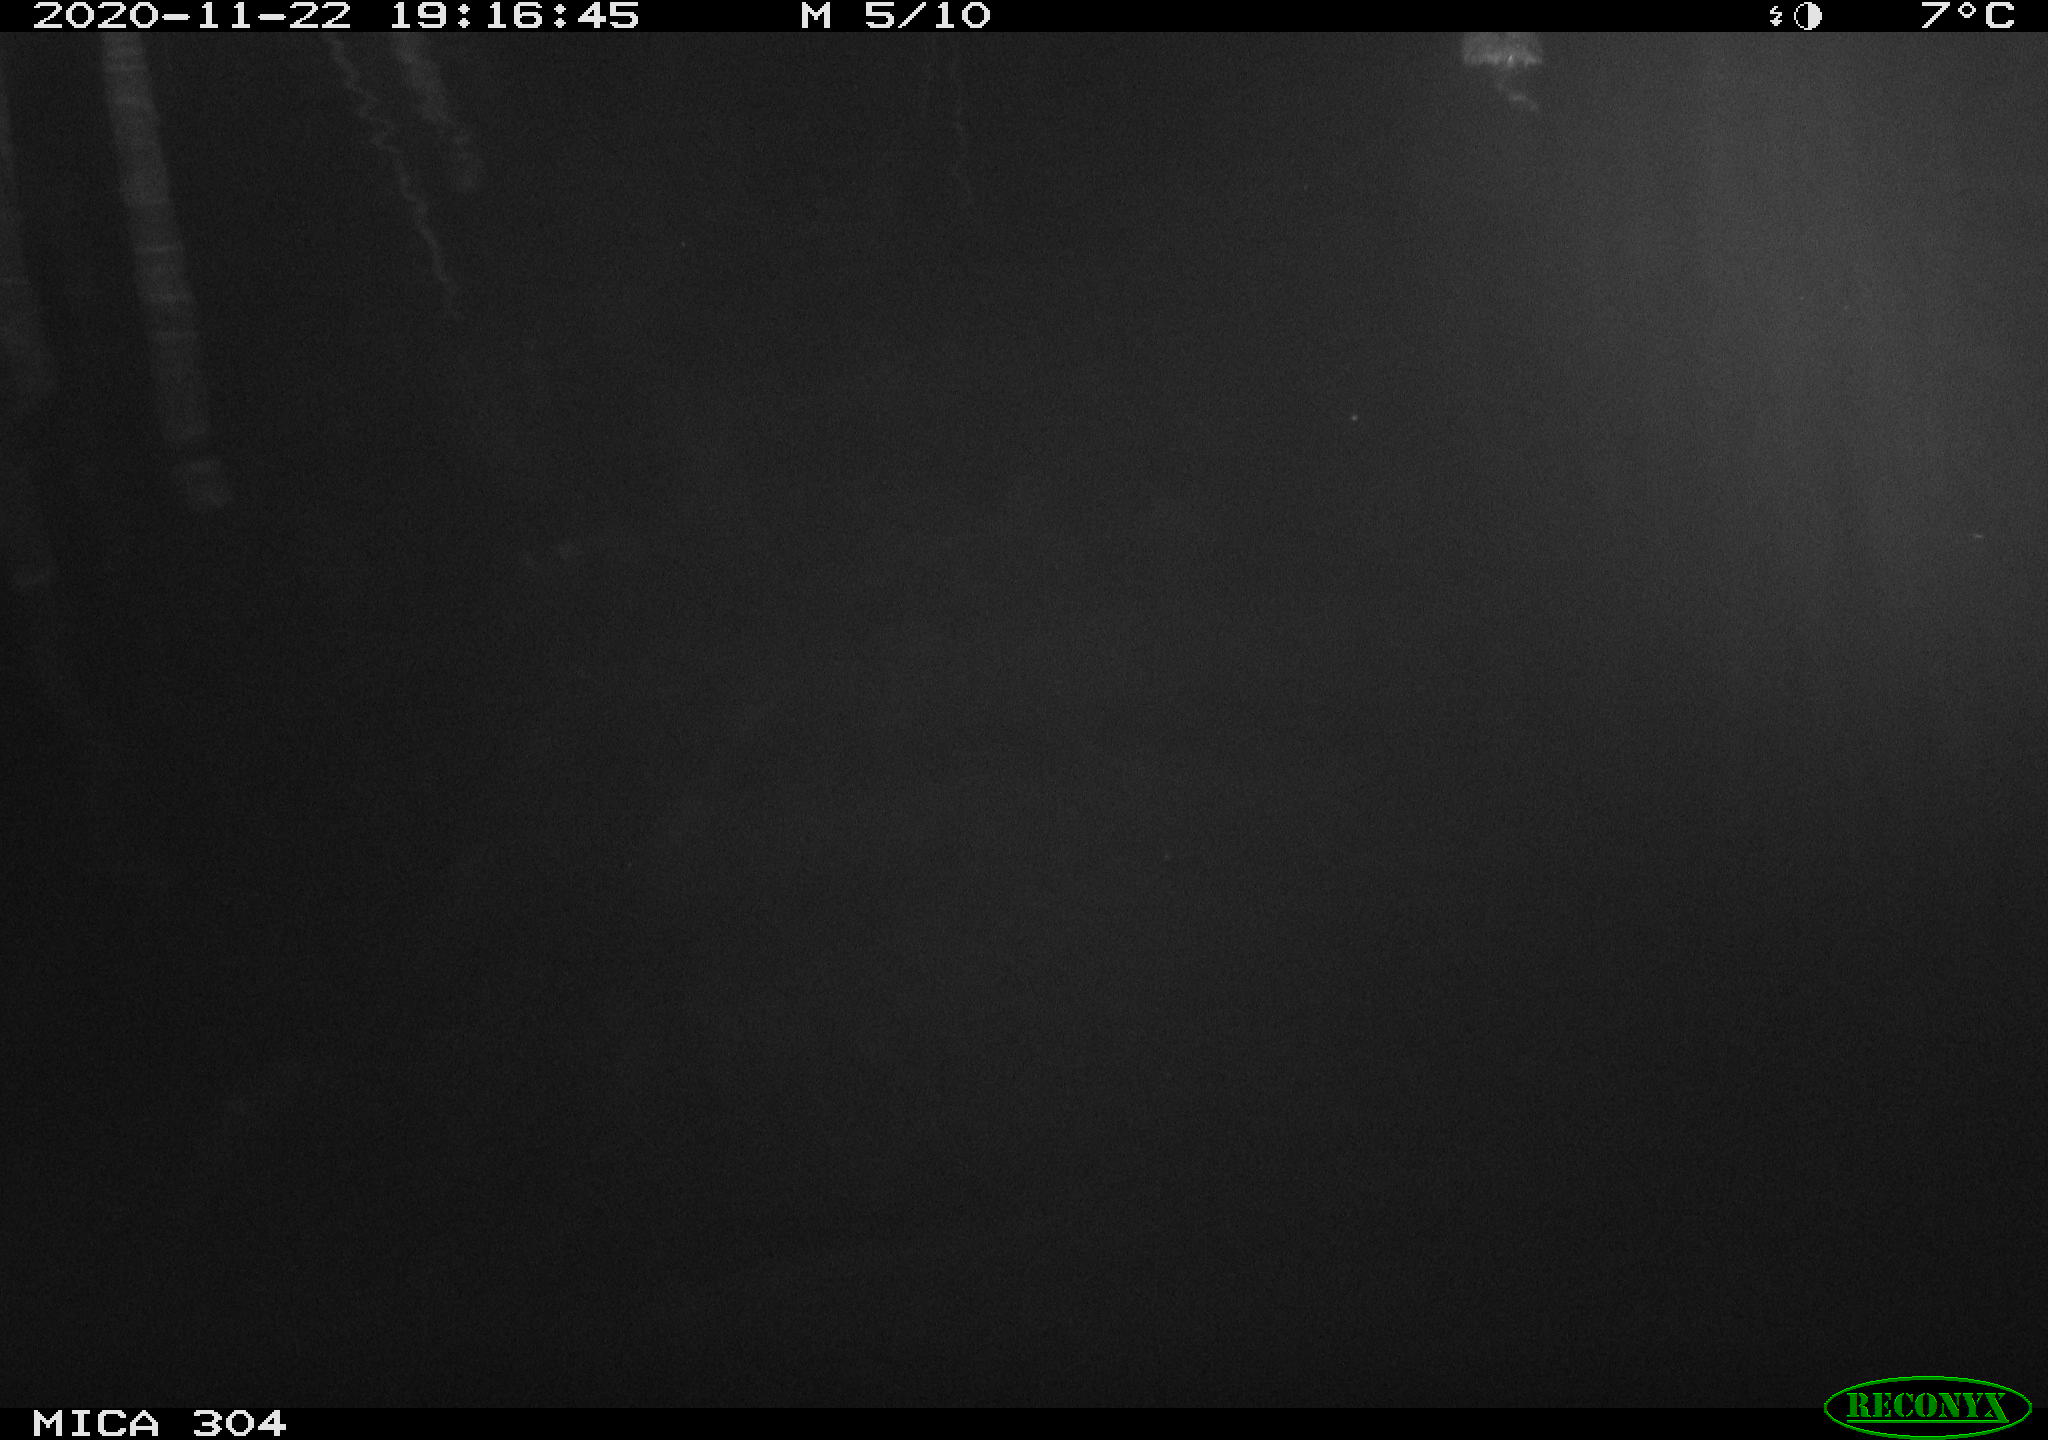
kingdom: Animalia
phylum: Chordata
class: Mammalia
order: Rodentia
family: Cricetidae
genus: Ondatra
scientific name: Ondatra zibethicus
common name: Muskrat
